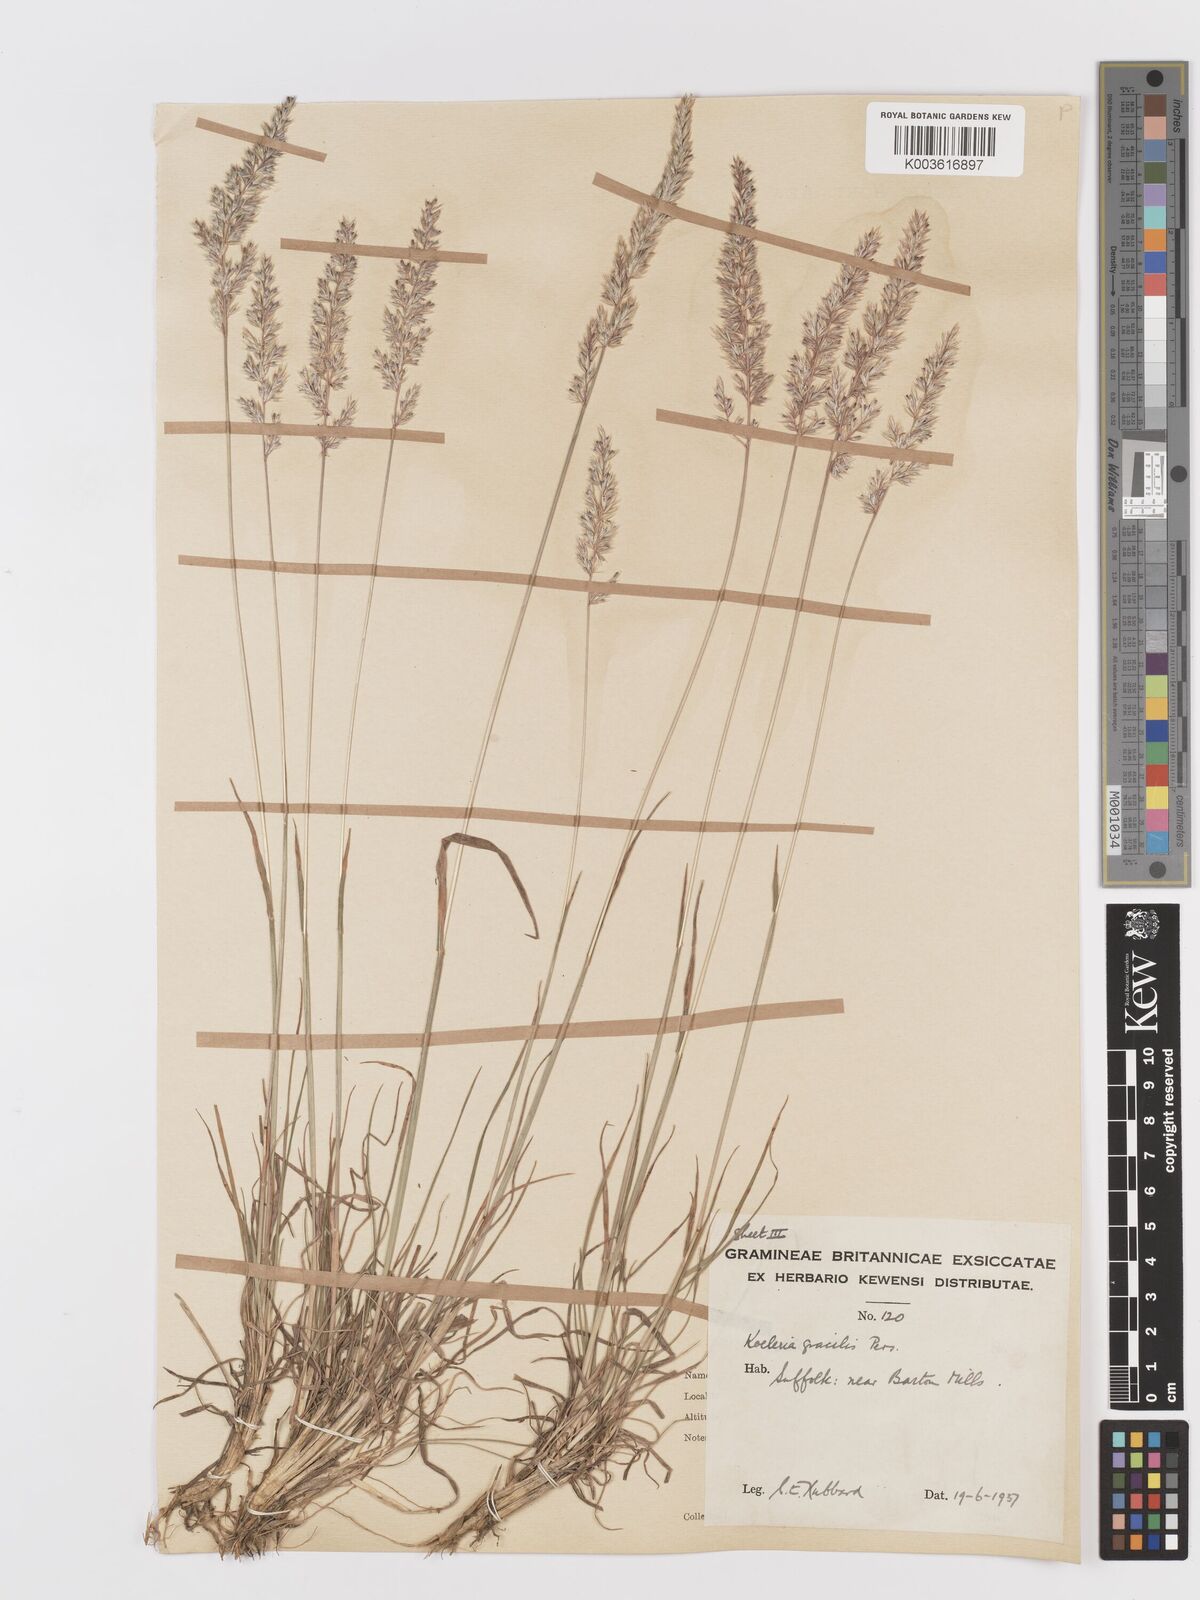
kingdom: Plantae
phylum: Tracheophyta
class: Liliopsida
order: Poales
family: Poaceae
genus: Koeleria
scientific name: Koeleria macrantha
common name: Crested hair-grass
